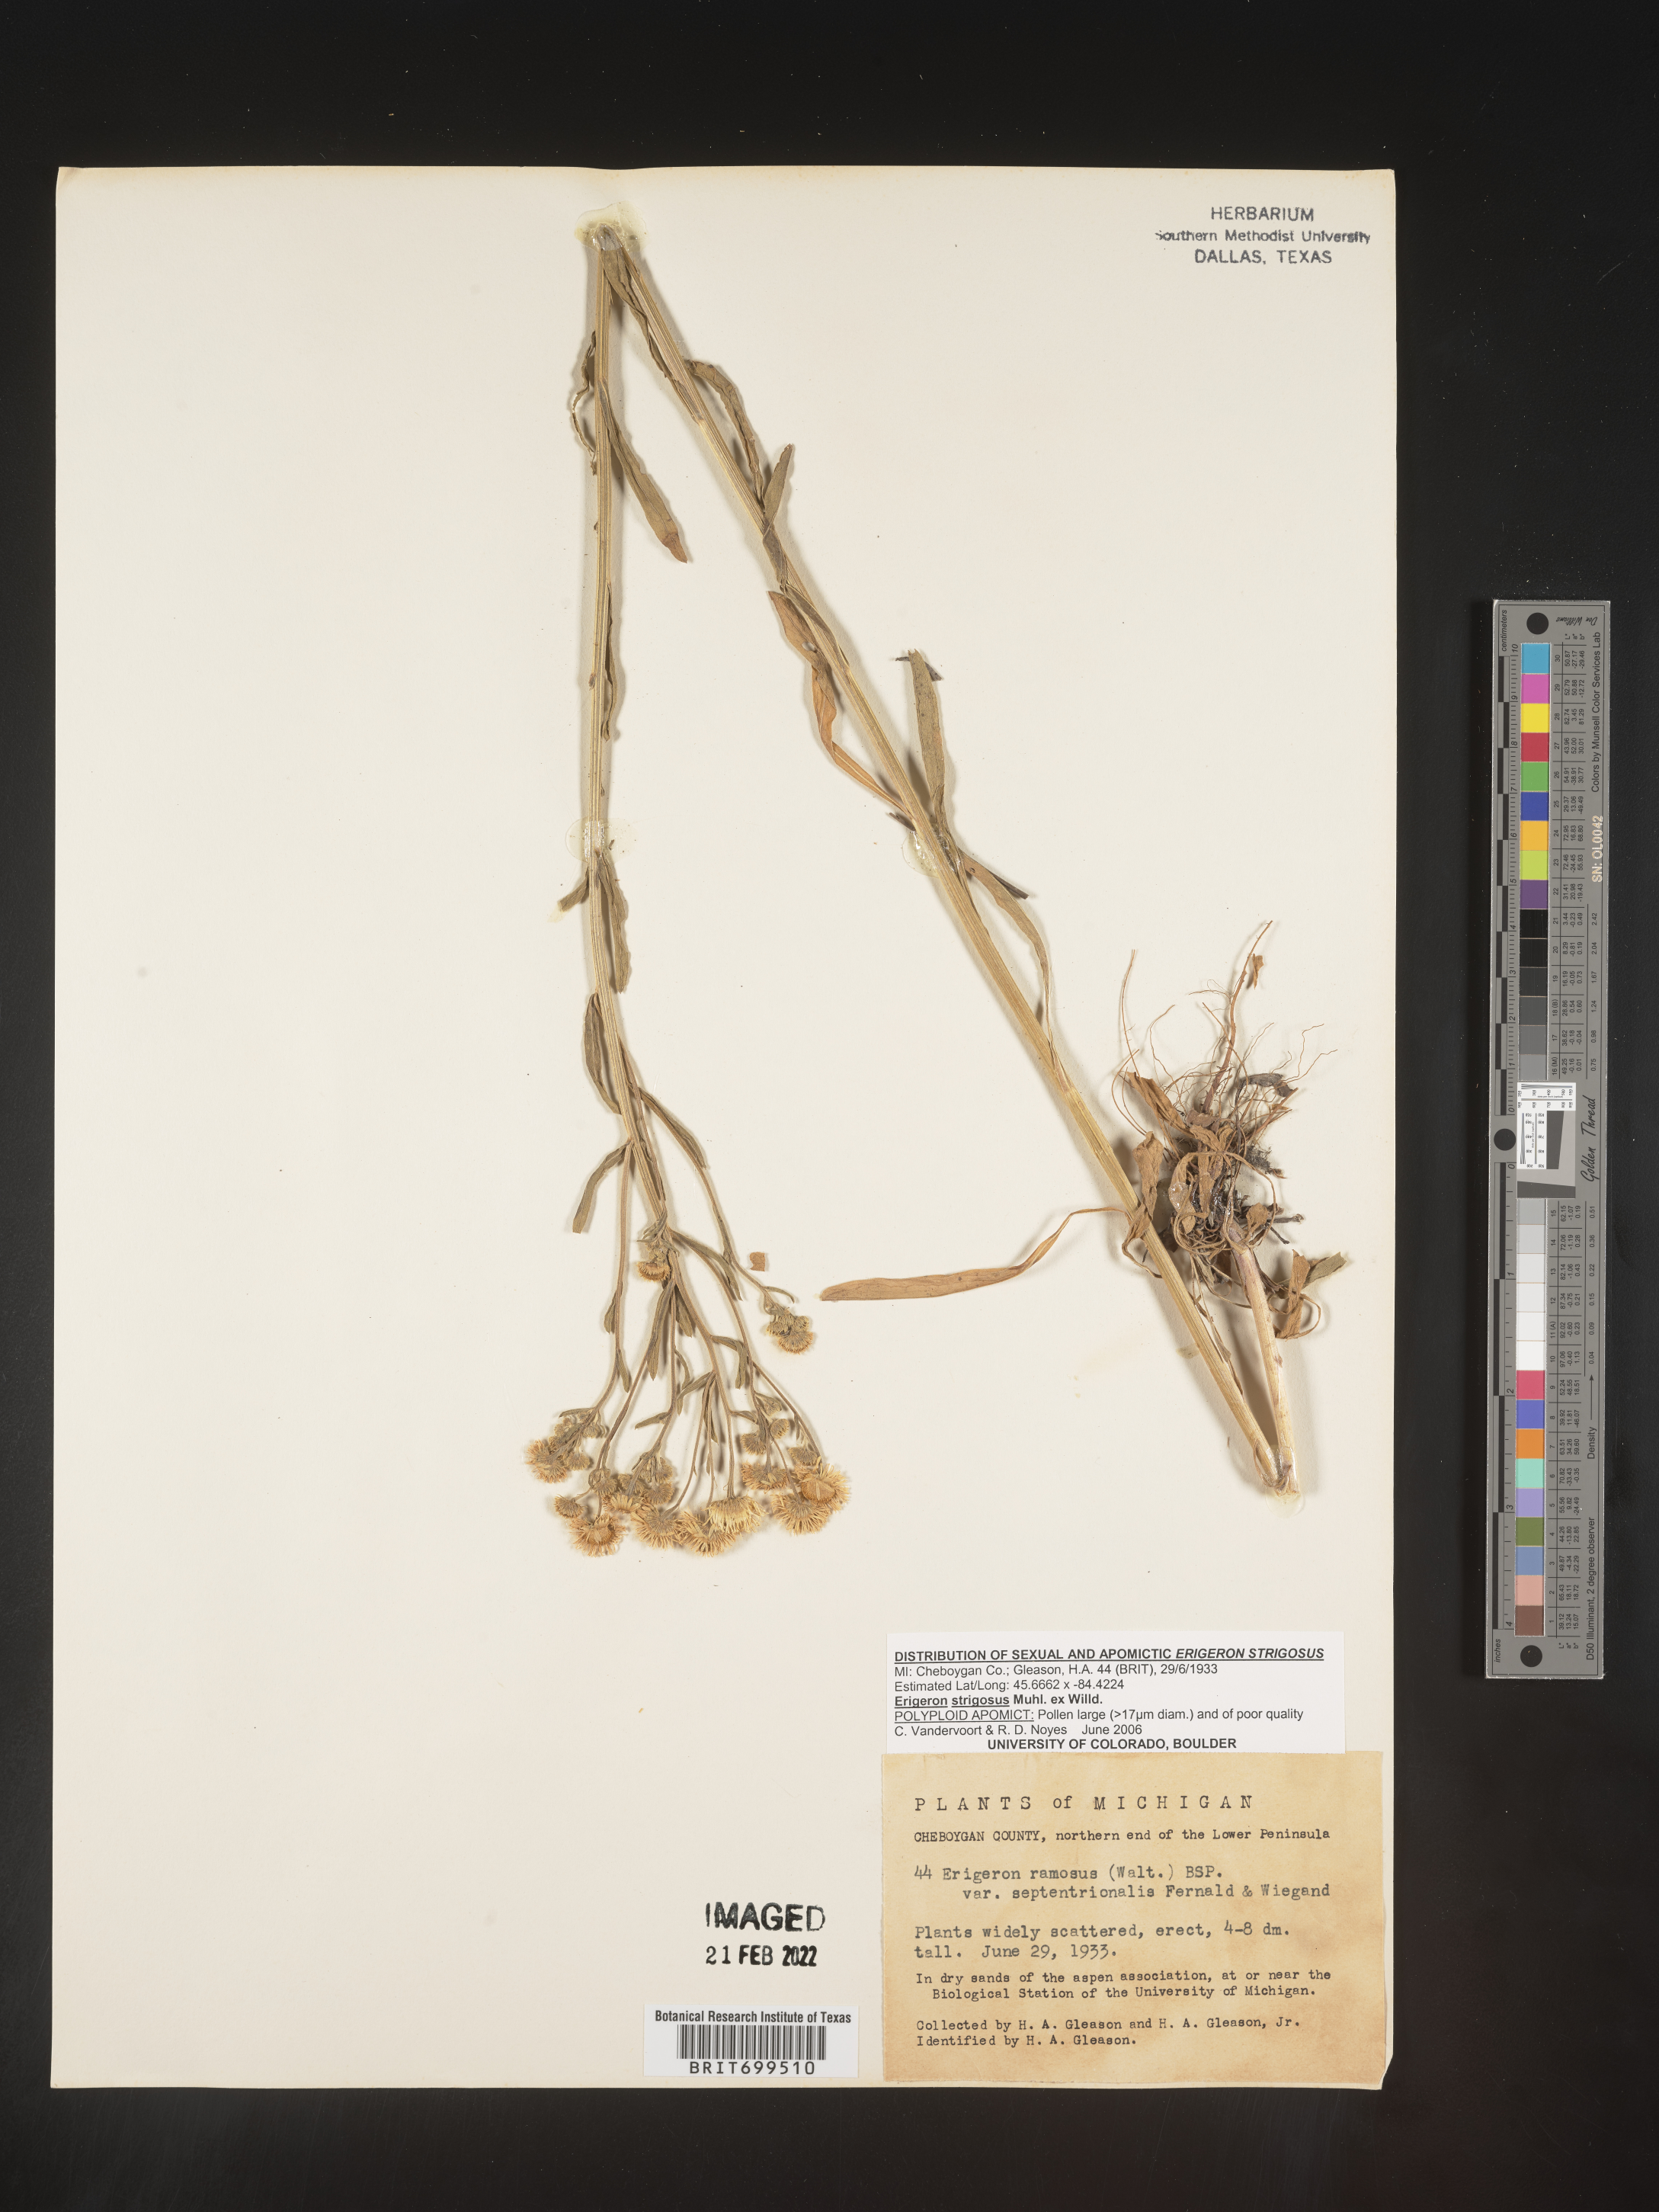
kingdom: Plantae
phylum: Tracheophyta
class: Magnoliopsida
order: Asterales
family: Asteraceae
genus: Erigeron
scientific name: Erigeron strigosus
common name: Common eastern fleabane
